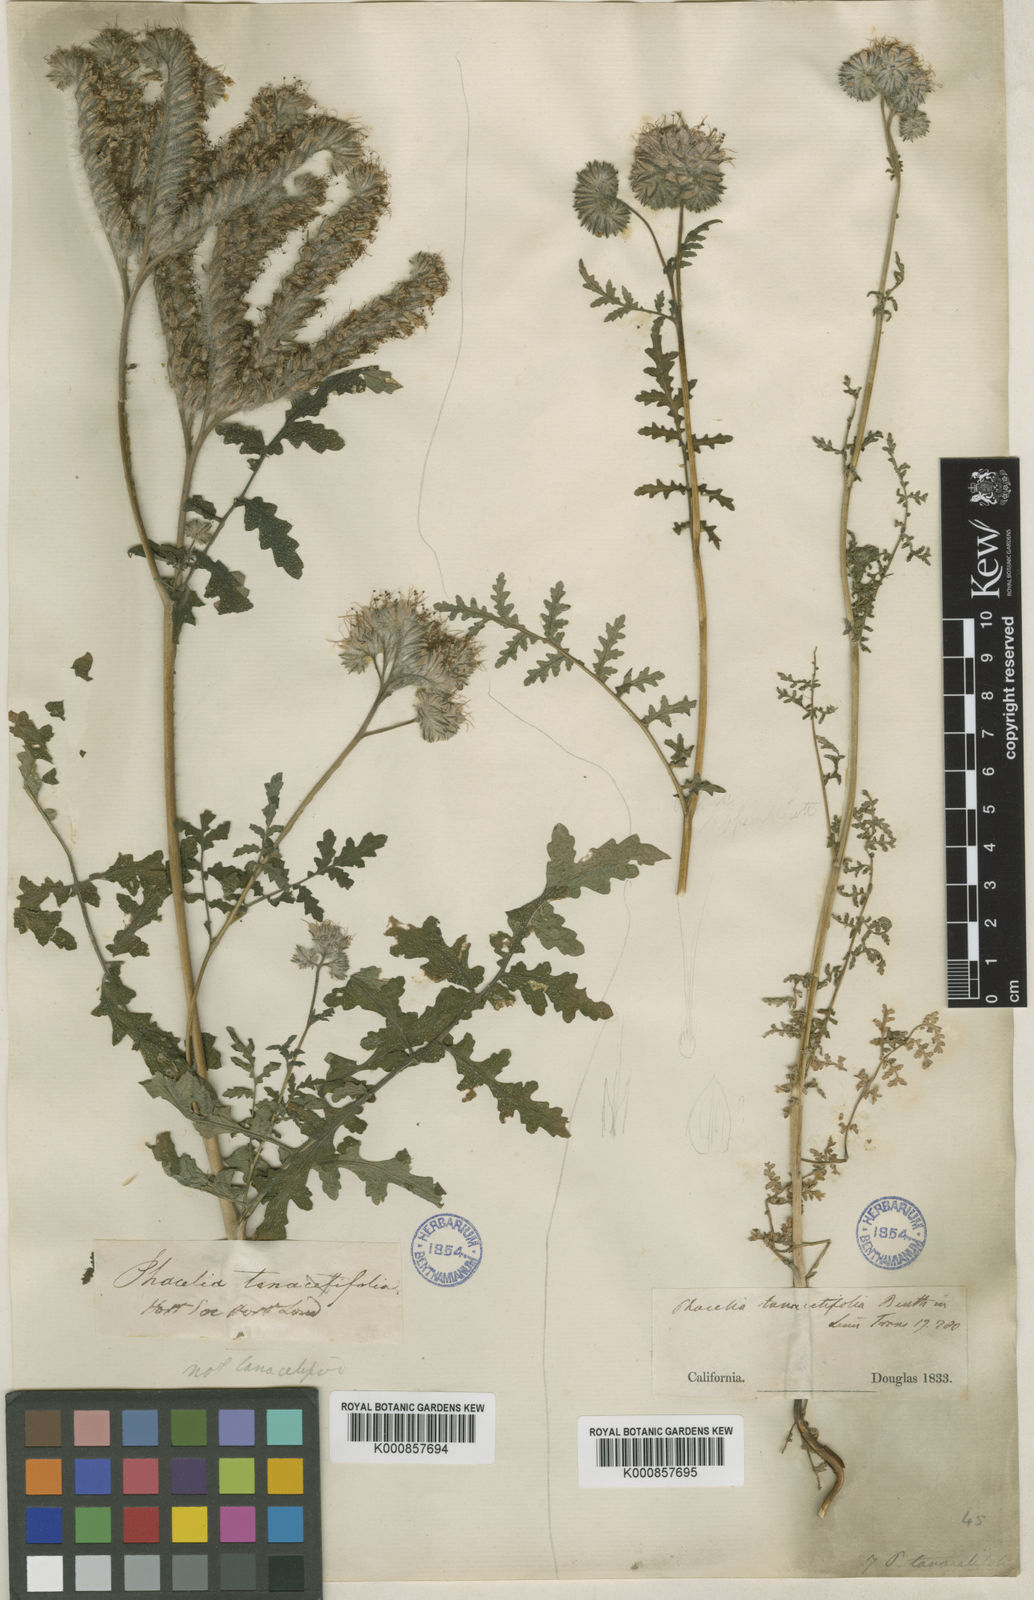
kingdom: Plantae
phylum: Tracheophyta
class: Magnoliopsida
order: Boraginales
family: Hydrophyllaceae
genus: Phacelia
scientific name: Phacelia tanacetifolia
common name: Phacelia
